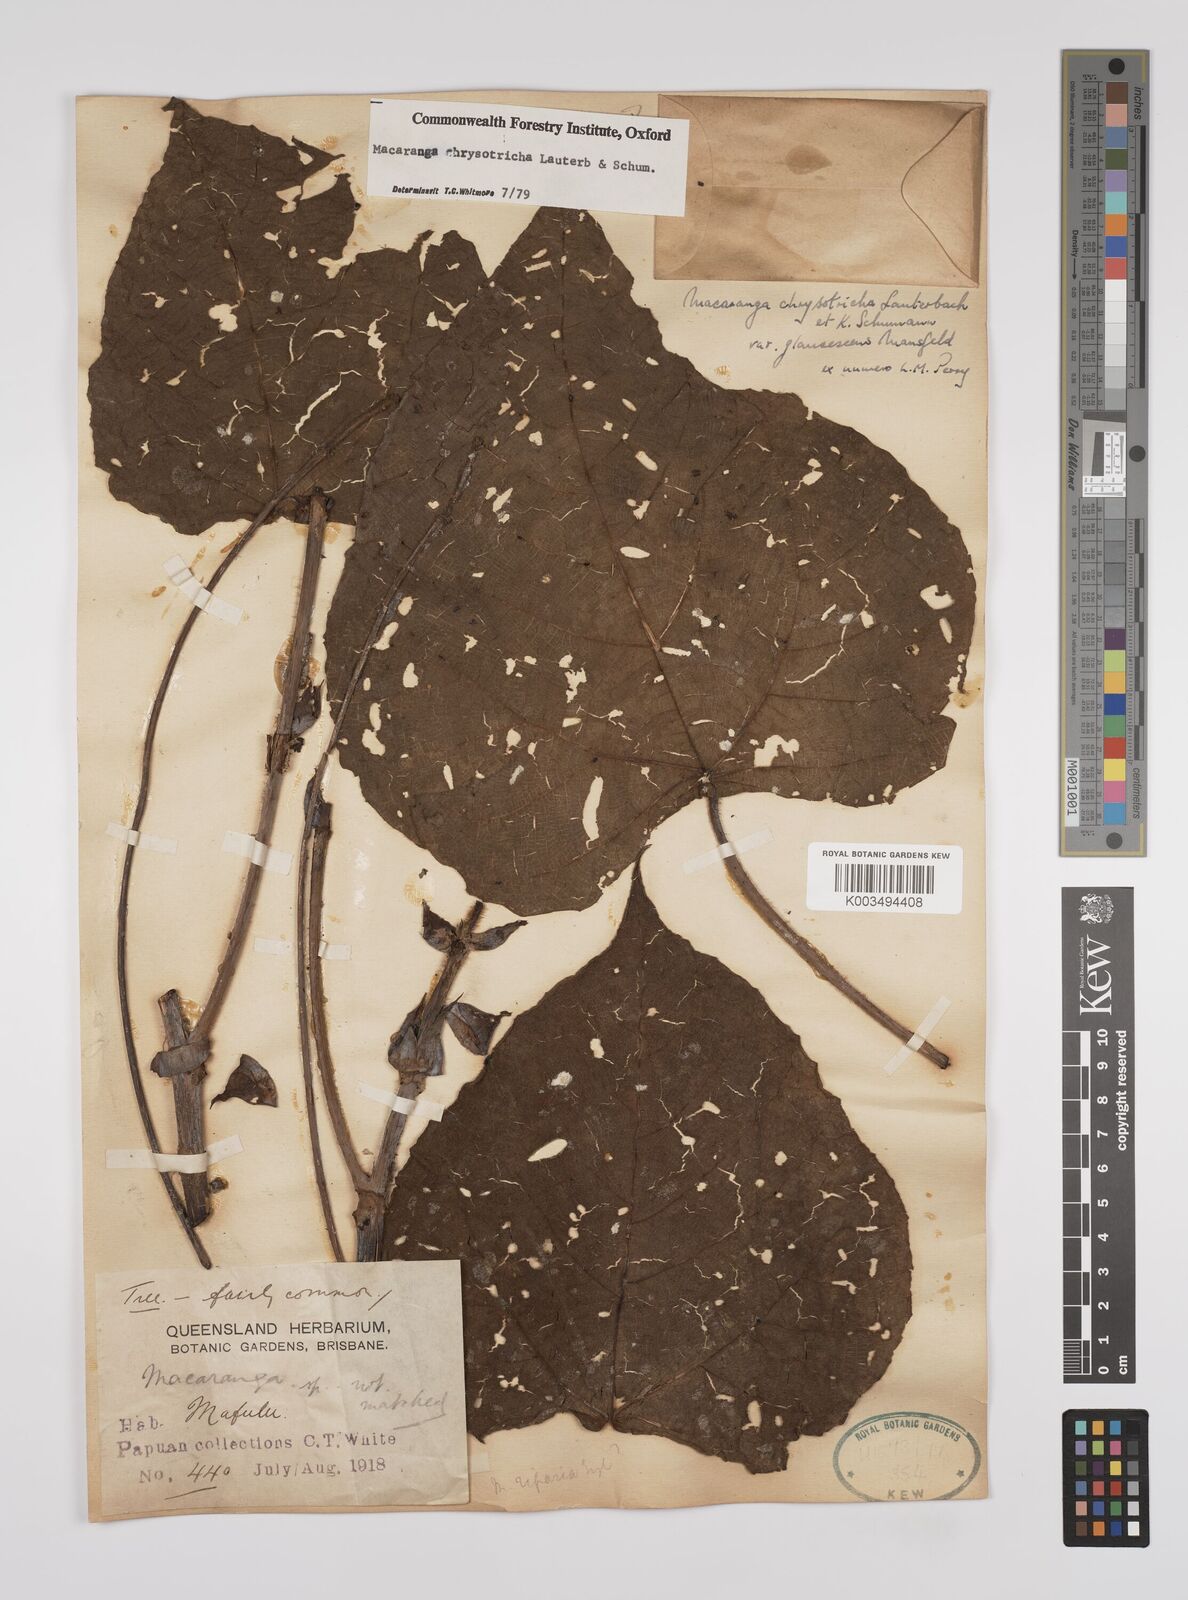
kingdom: Plantae
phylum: Tracheophyta
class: Magnoliopsida
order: Malpighiales
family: Euphorbiaceae
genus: Macaranga
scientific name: Macaranga chrysotricha
